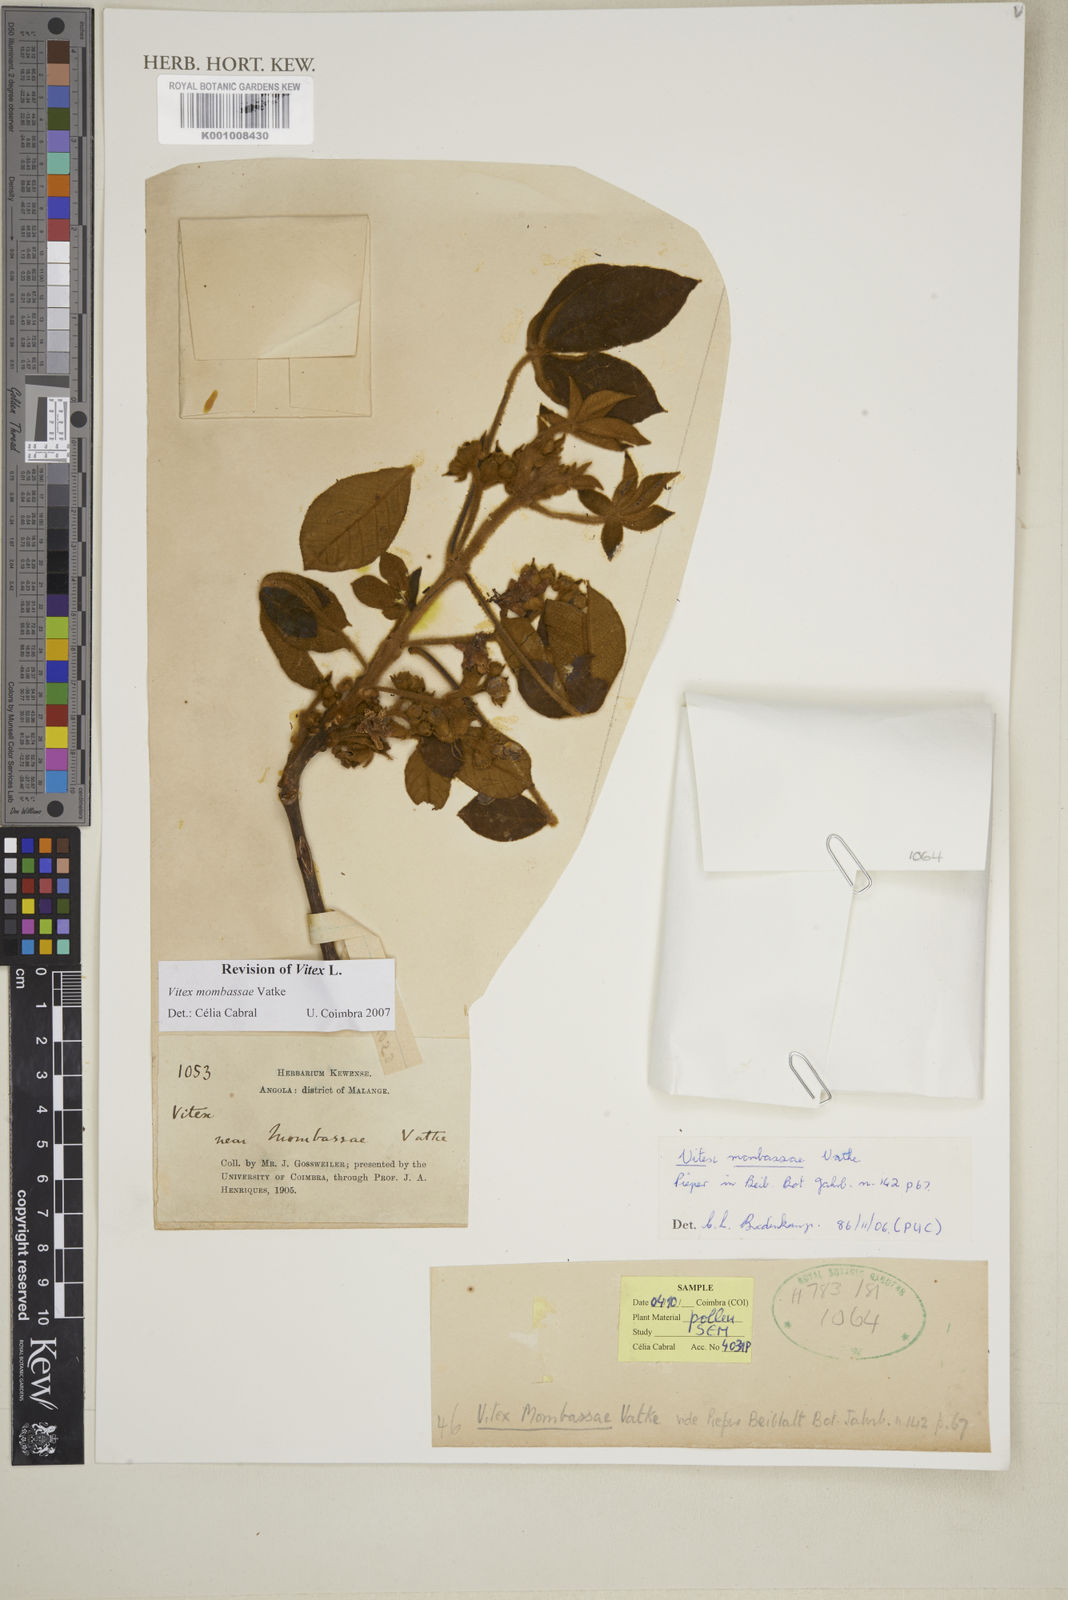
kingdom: Plantae
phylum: Tracheophyta
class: Magnoliopsida
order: Lamiales
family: Lamiaceae
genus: Vitex
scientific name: Vitex mombassae
